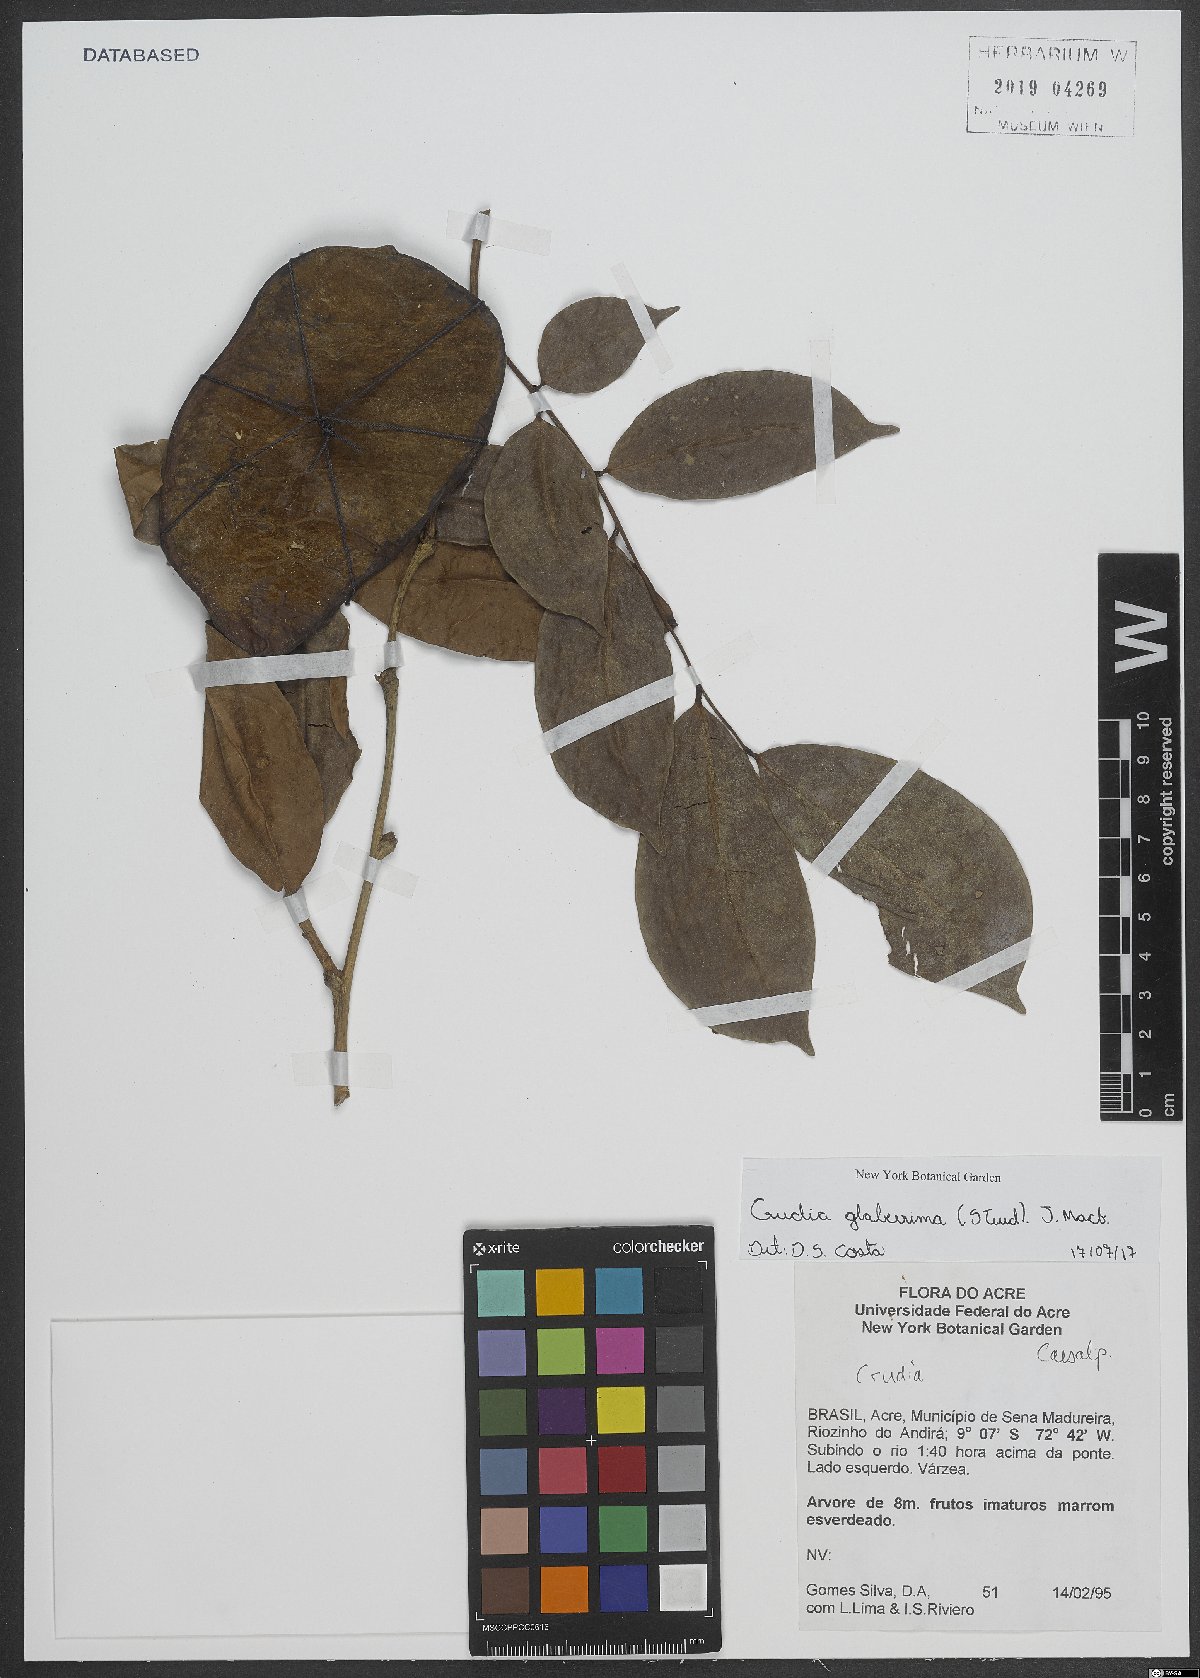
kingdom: Plantae
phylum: Tracheophyta
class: Magnoliopsida
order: Fabales
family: Fabaceae
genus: Crudia
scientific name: Crudia glaberrima
